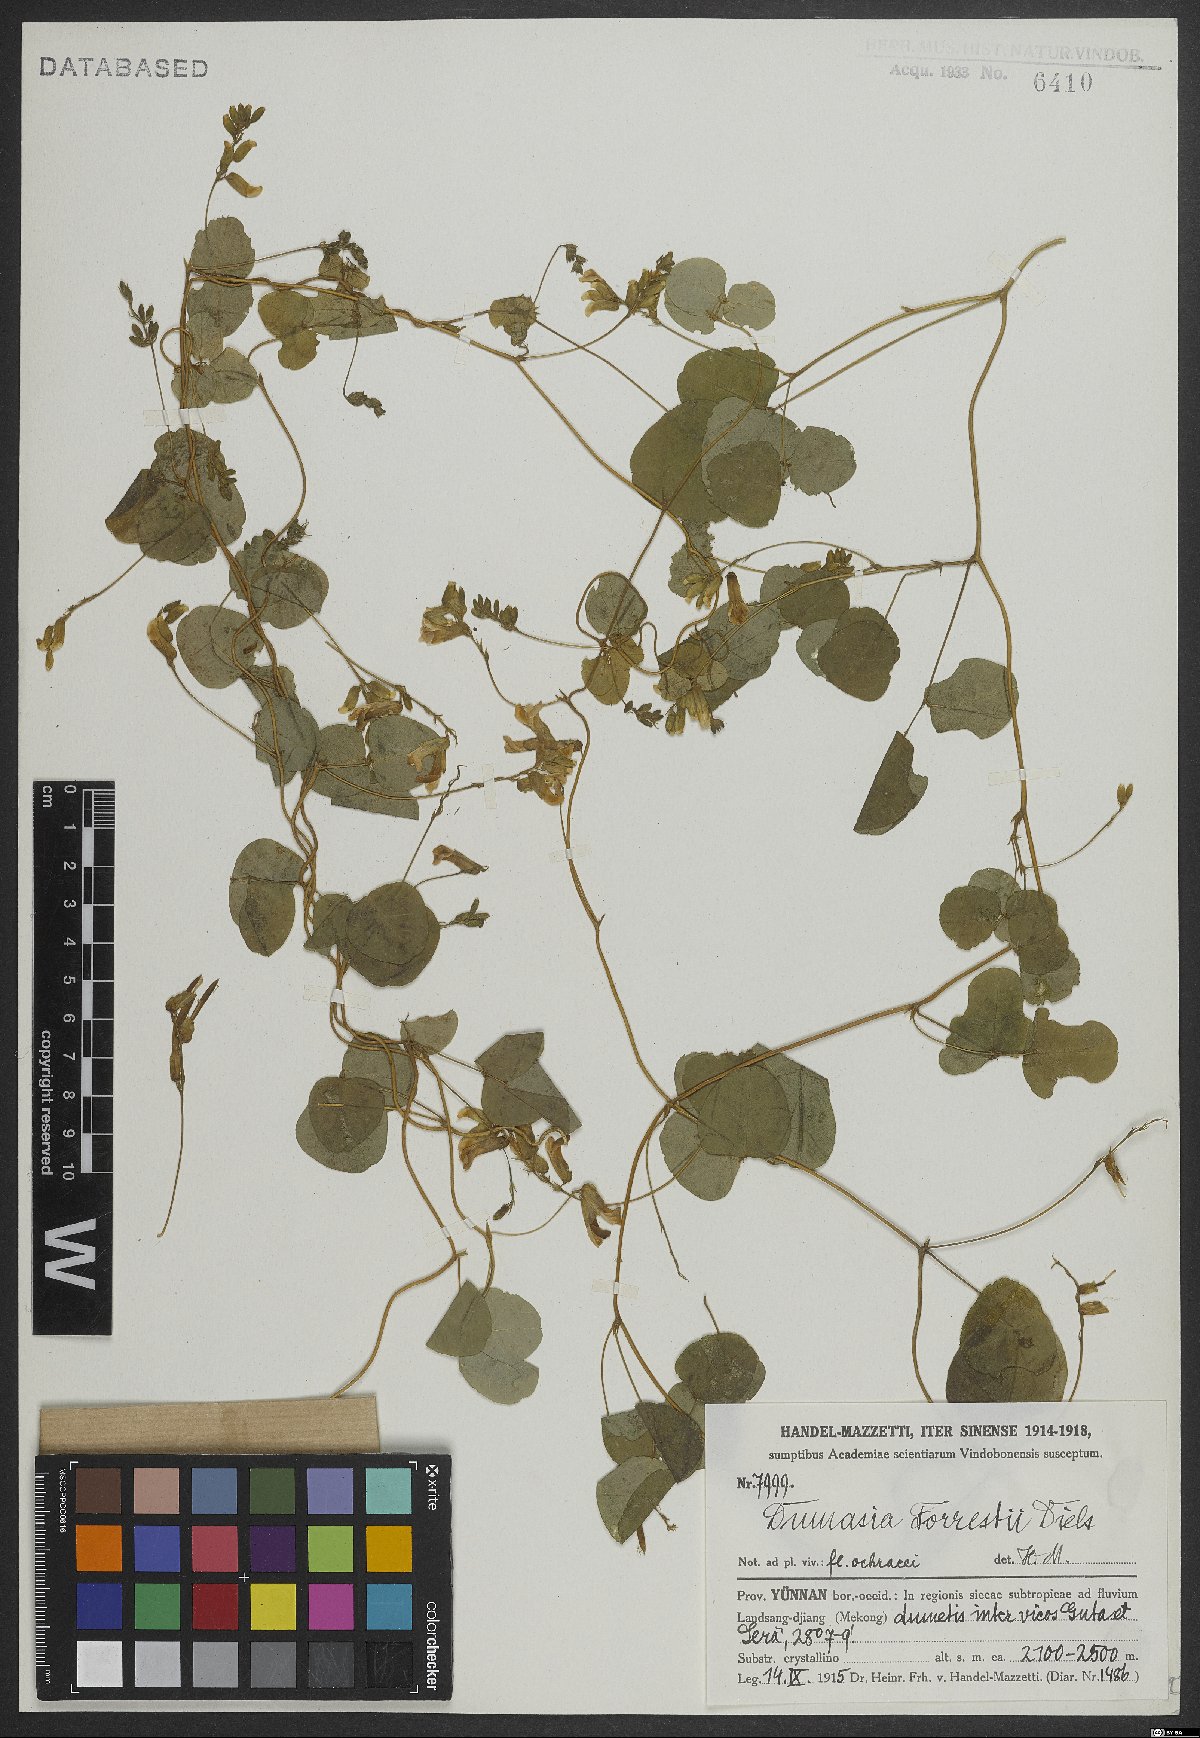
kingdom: Plantae
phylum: Tracheophyta
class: Magnoliopsida
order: Fabales
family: Fabaceae
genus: Dumasia
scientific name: Dumasia forrestii
